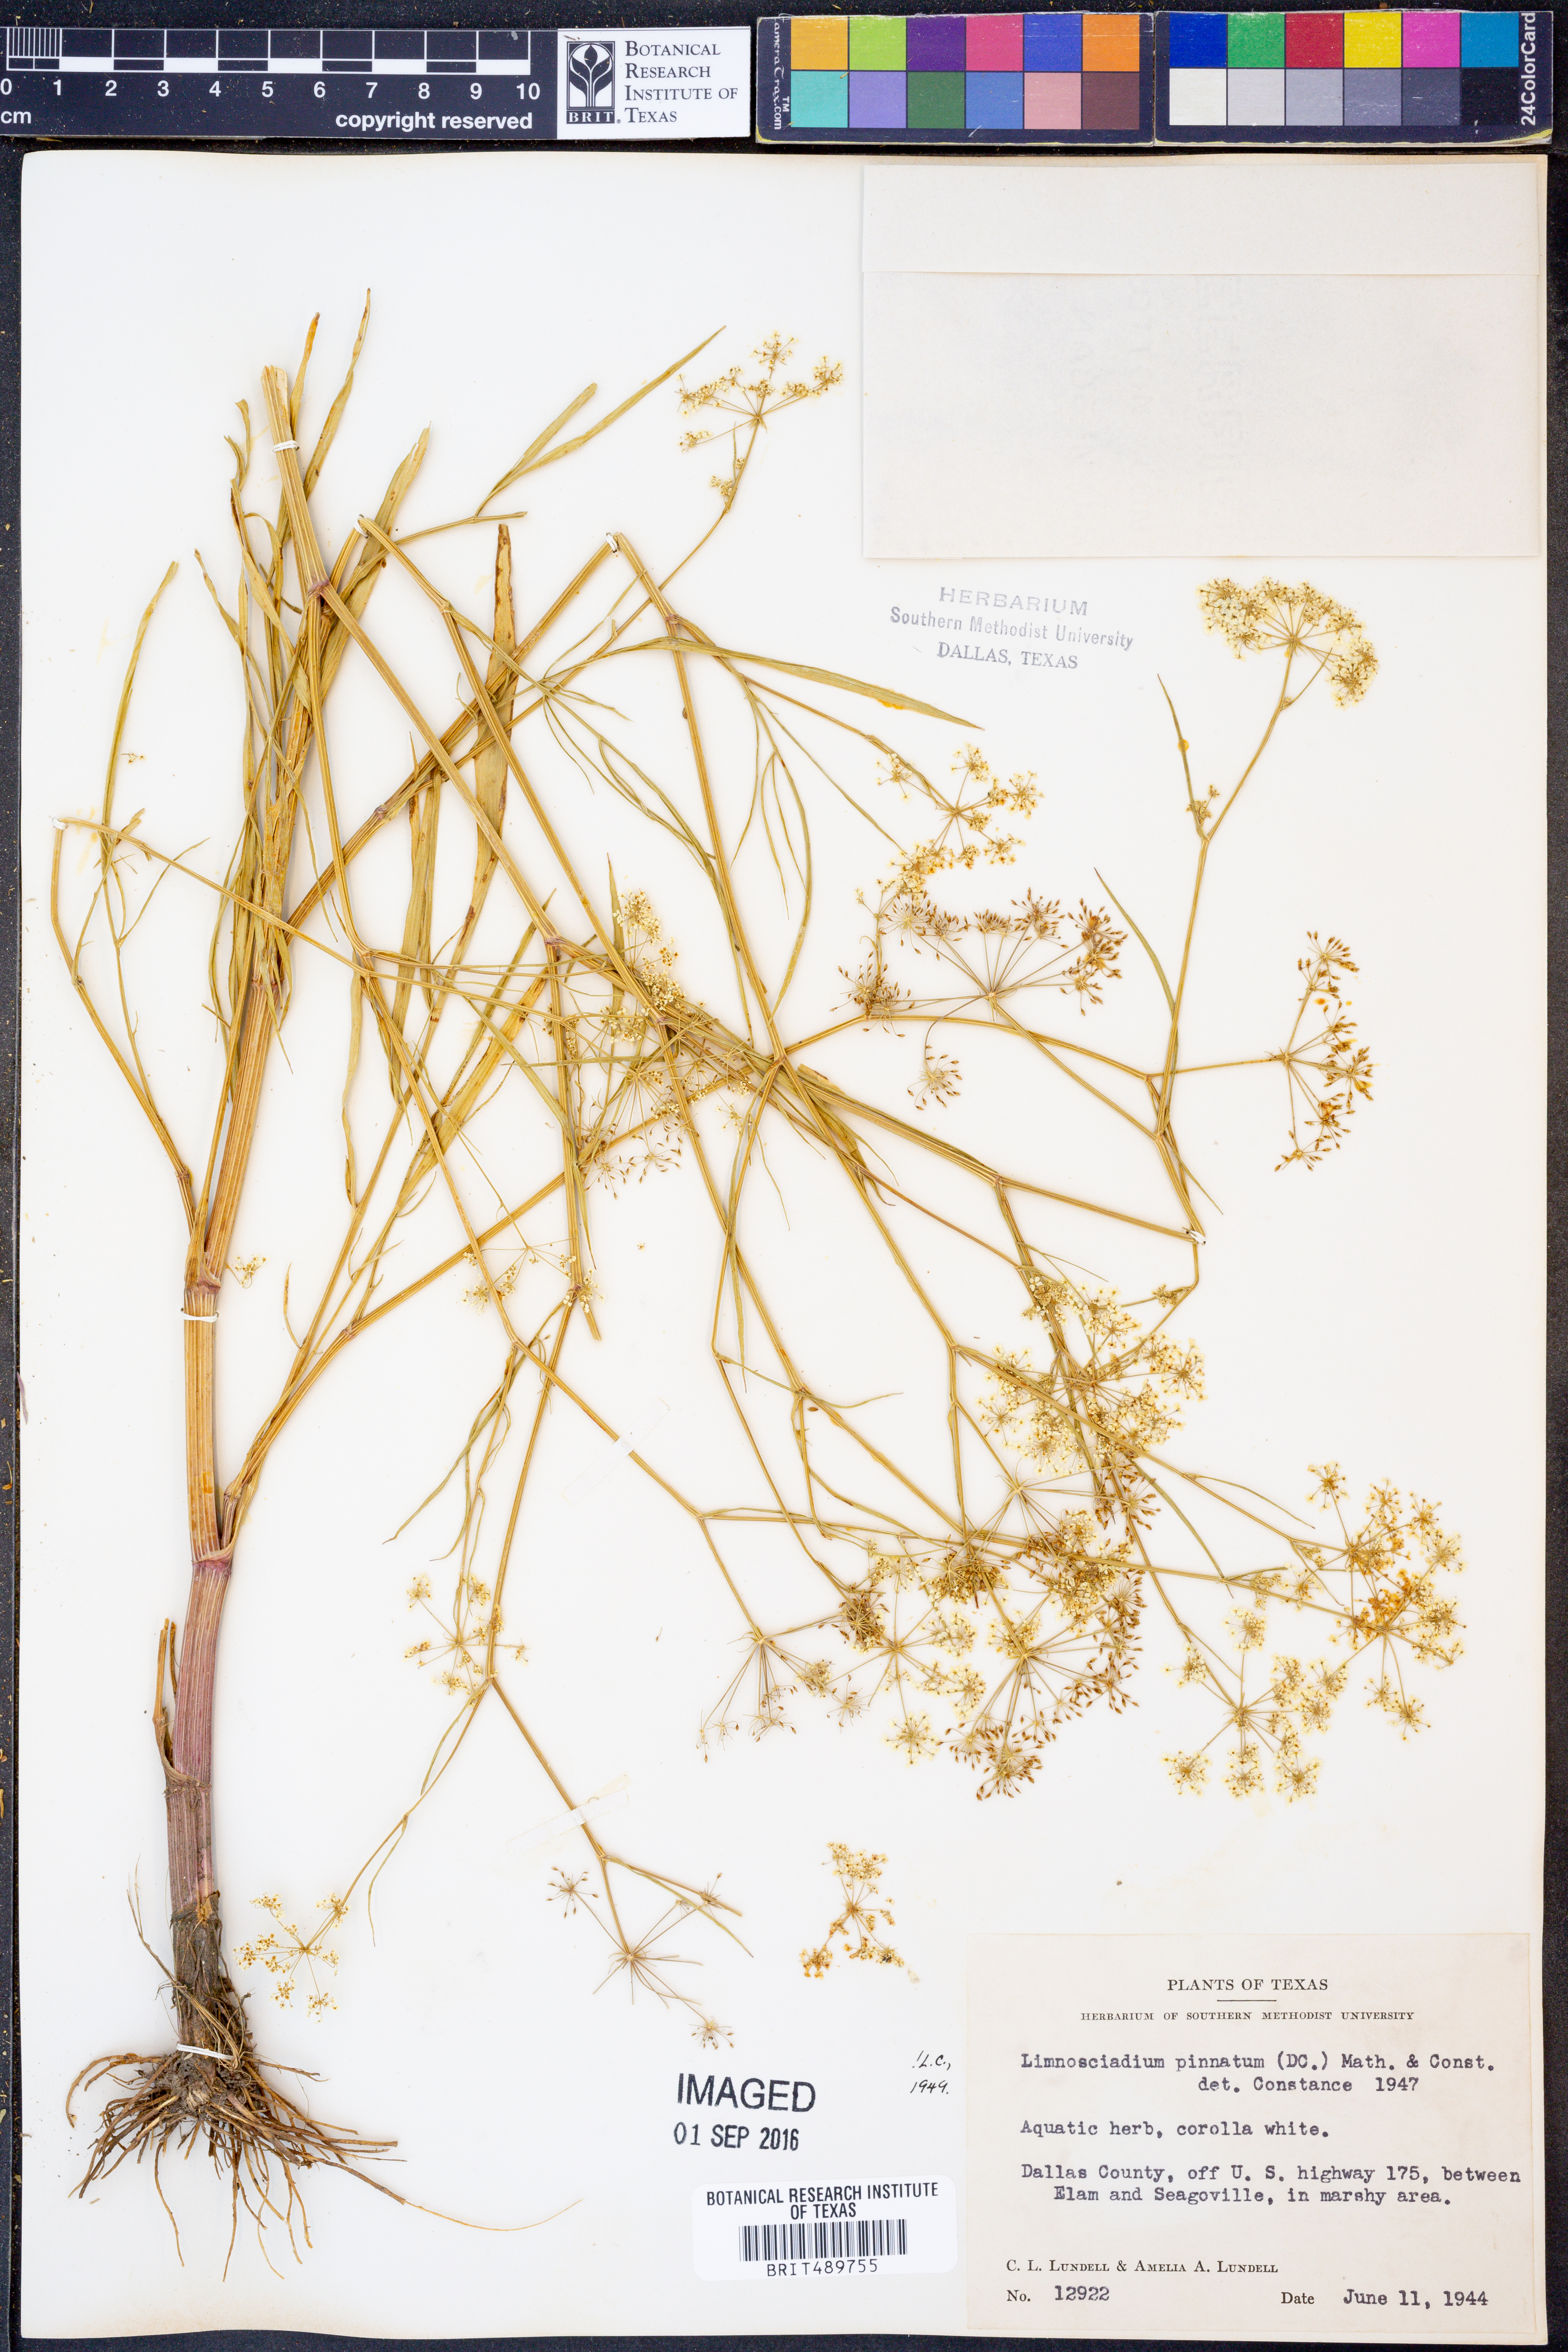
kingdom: Plantae
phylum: Tracheophyta
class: Magnoliopsida
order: Apiales
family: Apiaceae
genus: Limnosciadium
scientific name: Limnosciadium pinnatum
